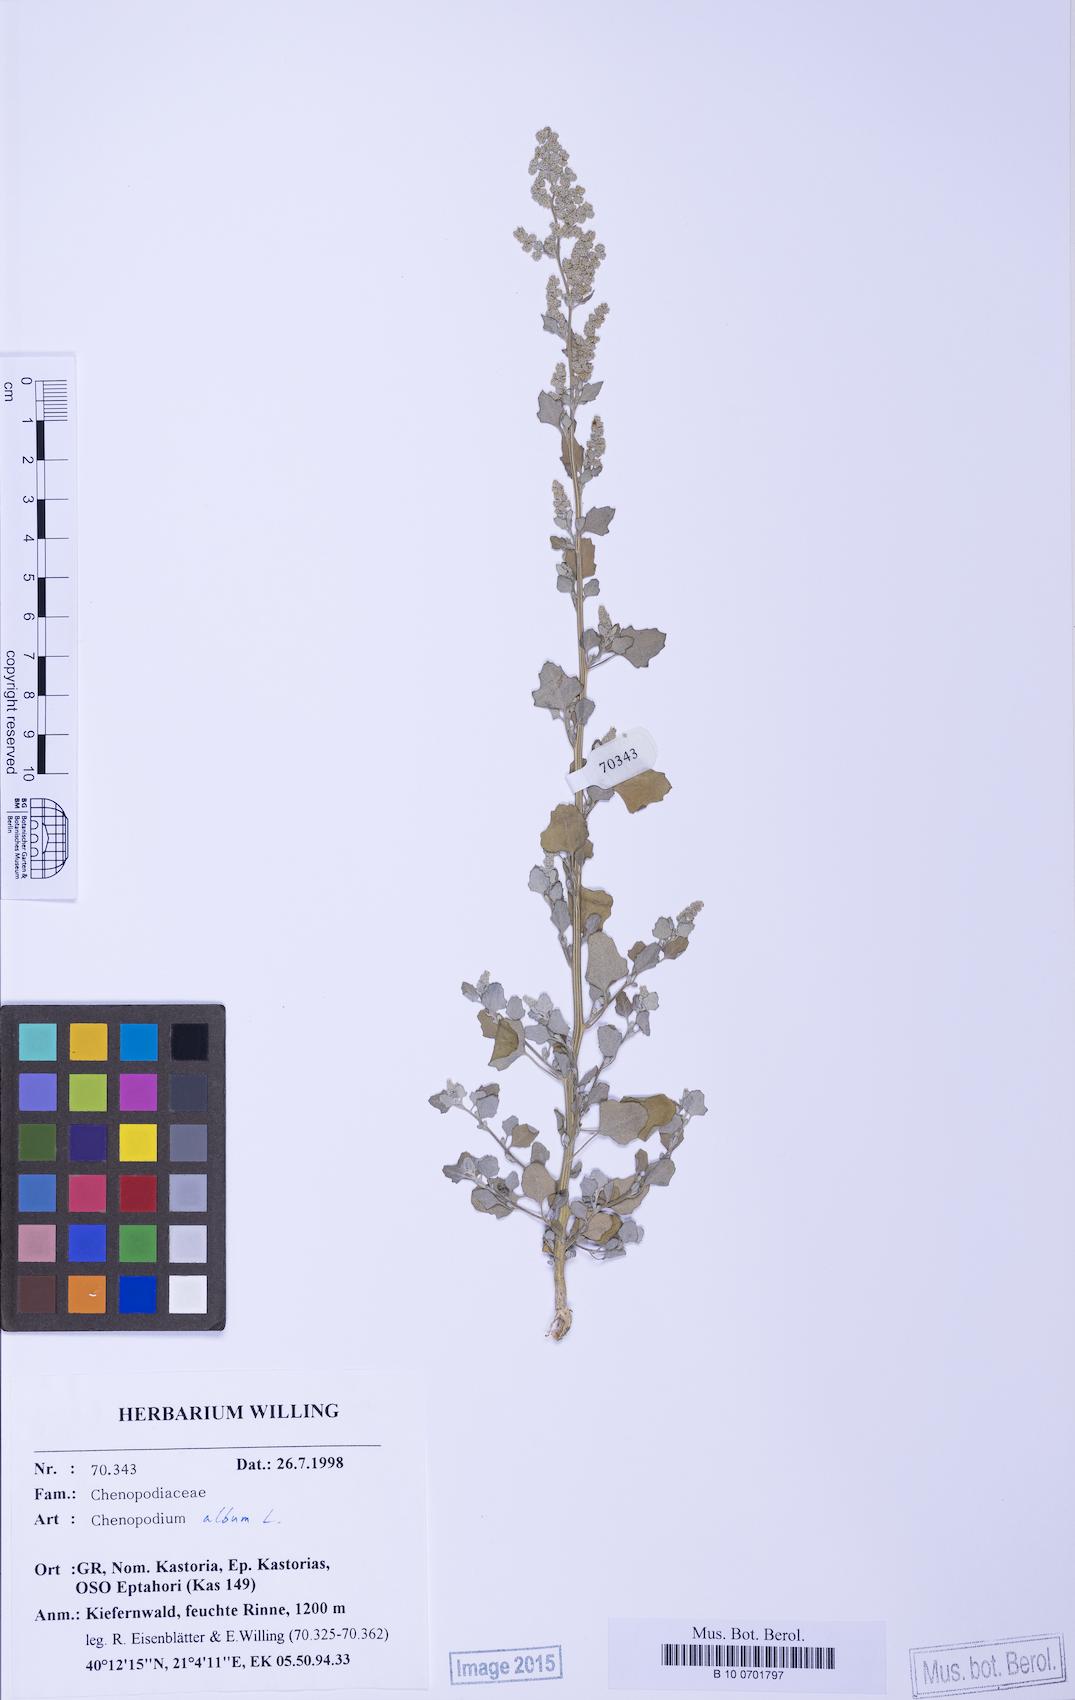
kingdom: Plantae
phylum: Tracheophyta
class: Magnoliopsida
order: Caryophyllales
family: Amaranthaceae
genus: Chenopodium
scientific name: Chenopodium opulifolium
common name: Grey goosefoot
